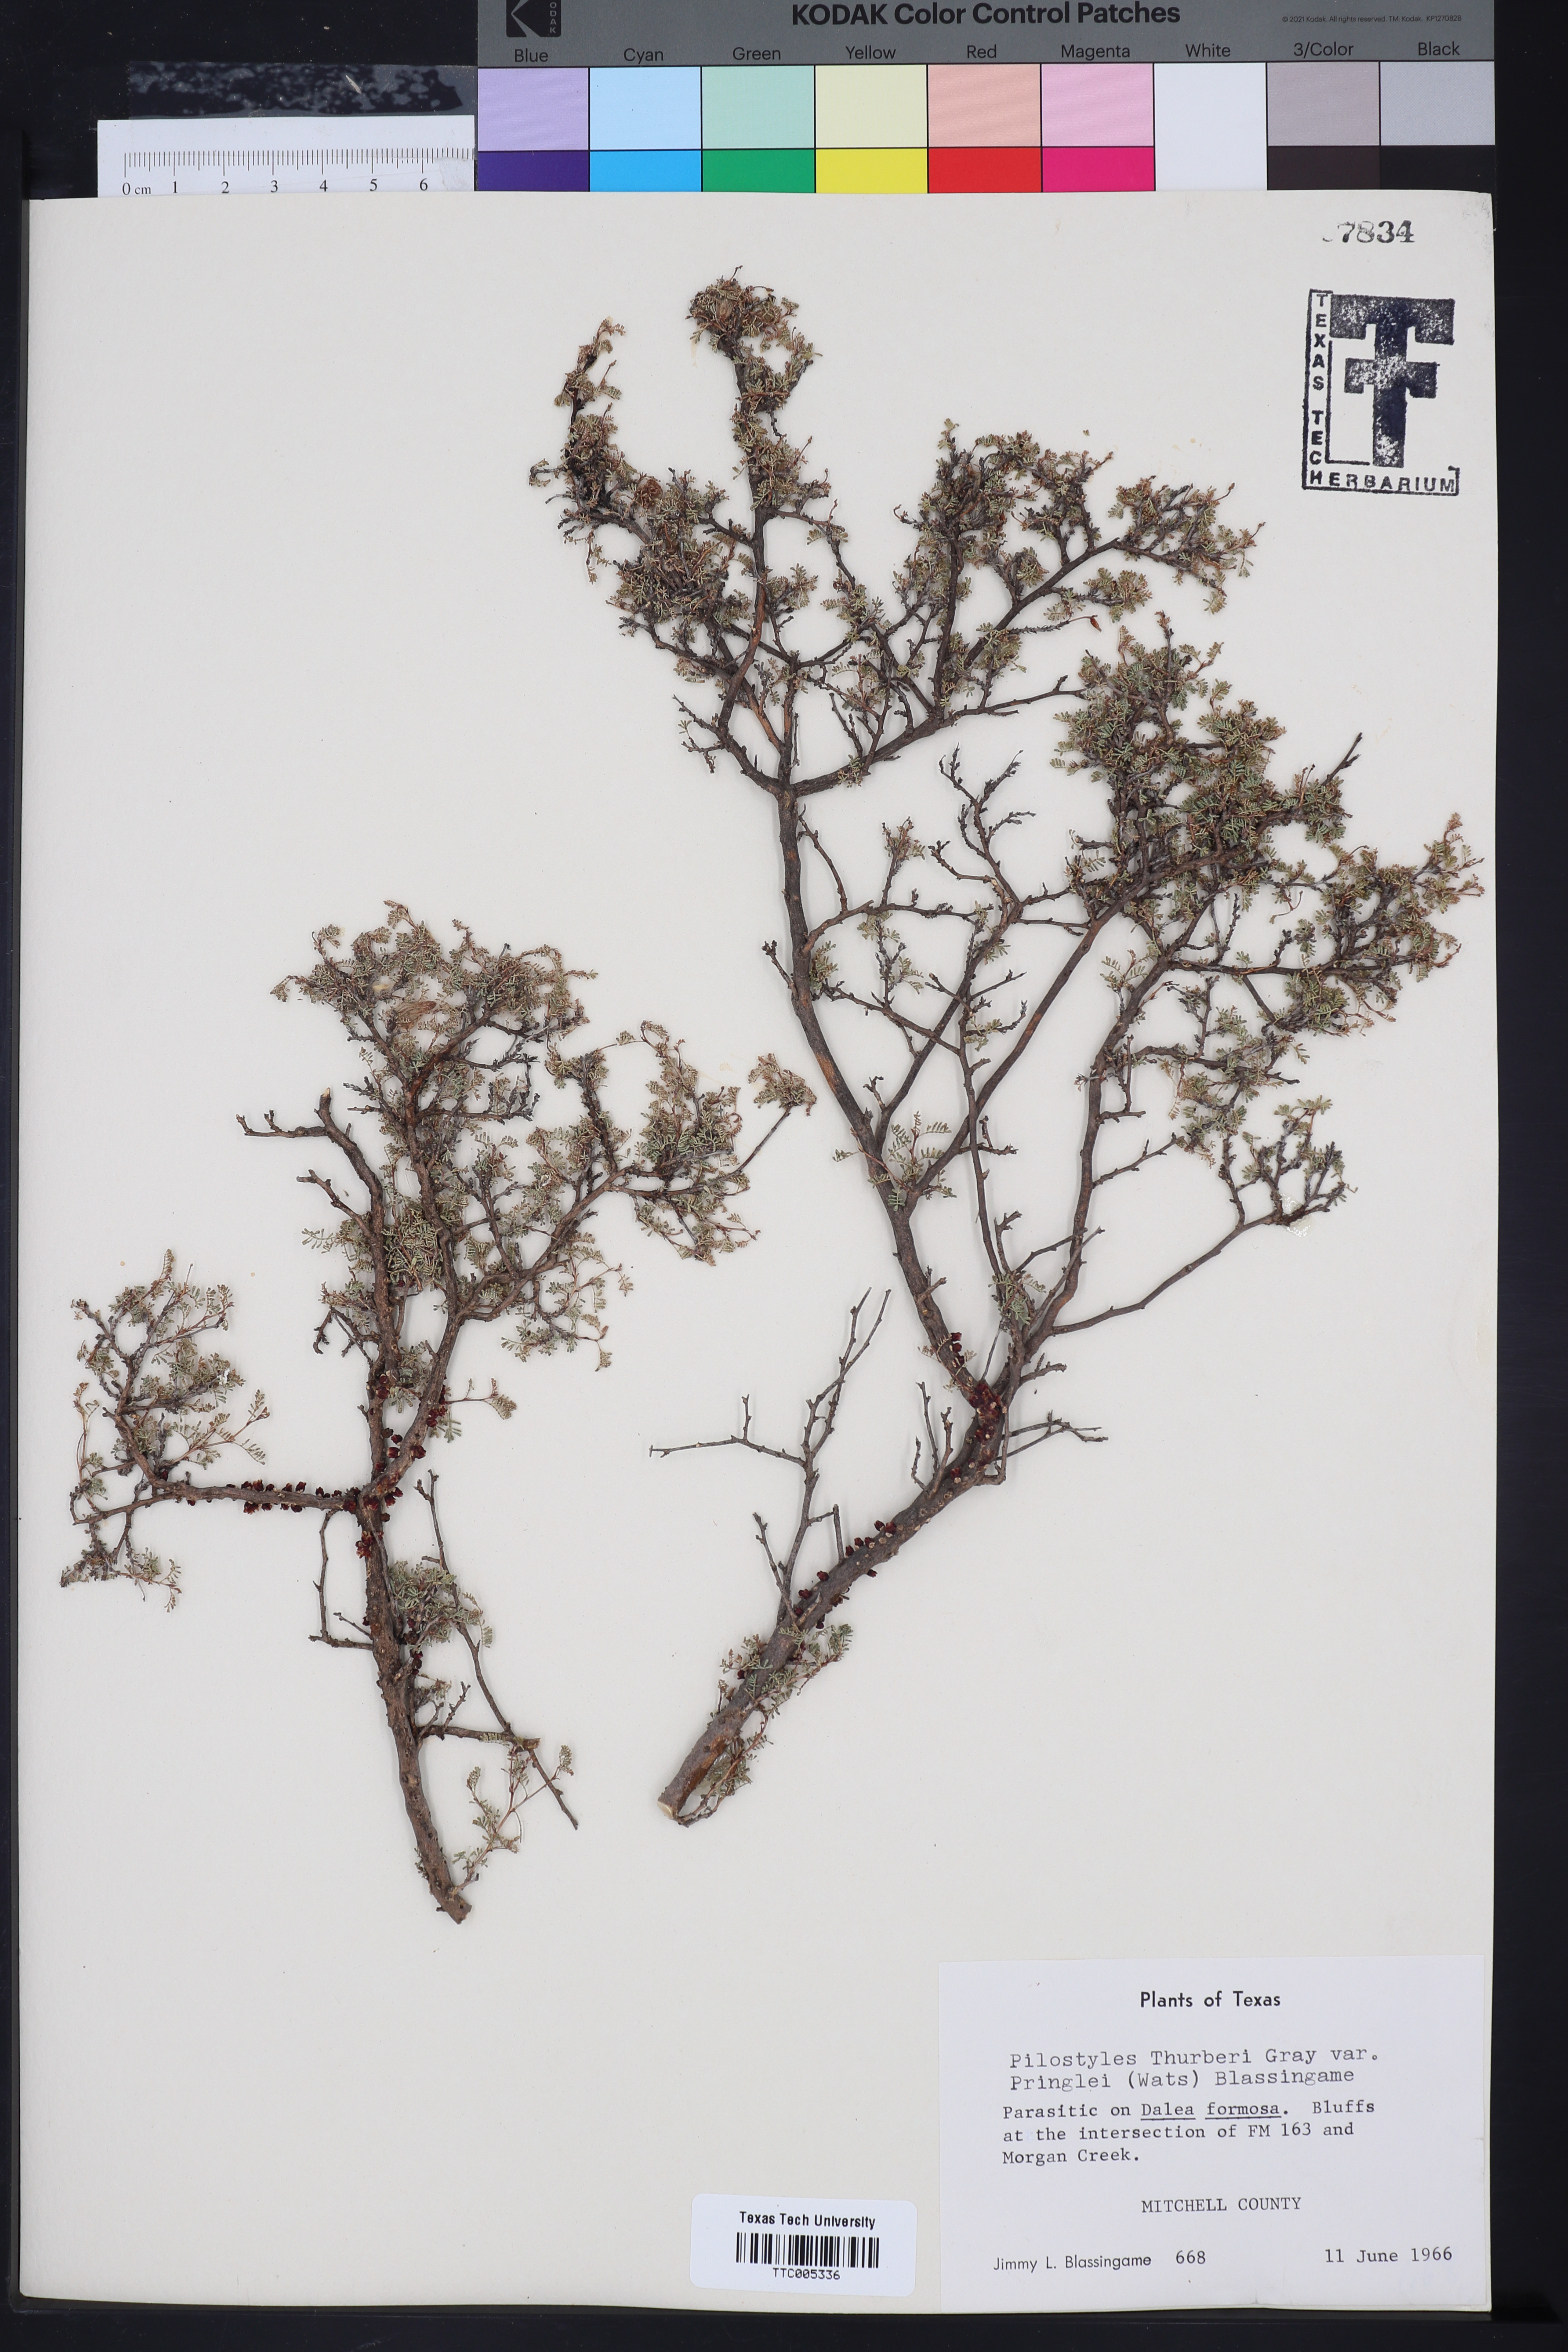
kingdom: Plantae
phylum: Tracheophyta
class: Magnoliopsida
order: Cucurbitales
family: Apodanthaceae
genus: Pilostyles
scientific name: Pilostyles thurberi
